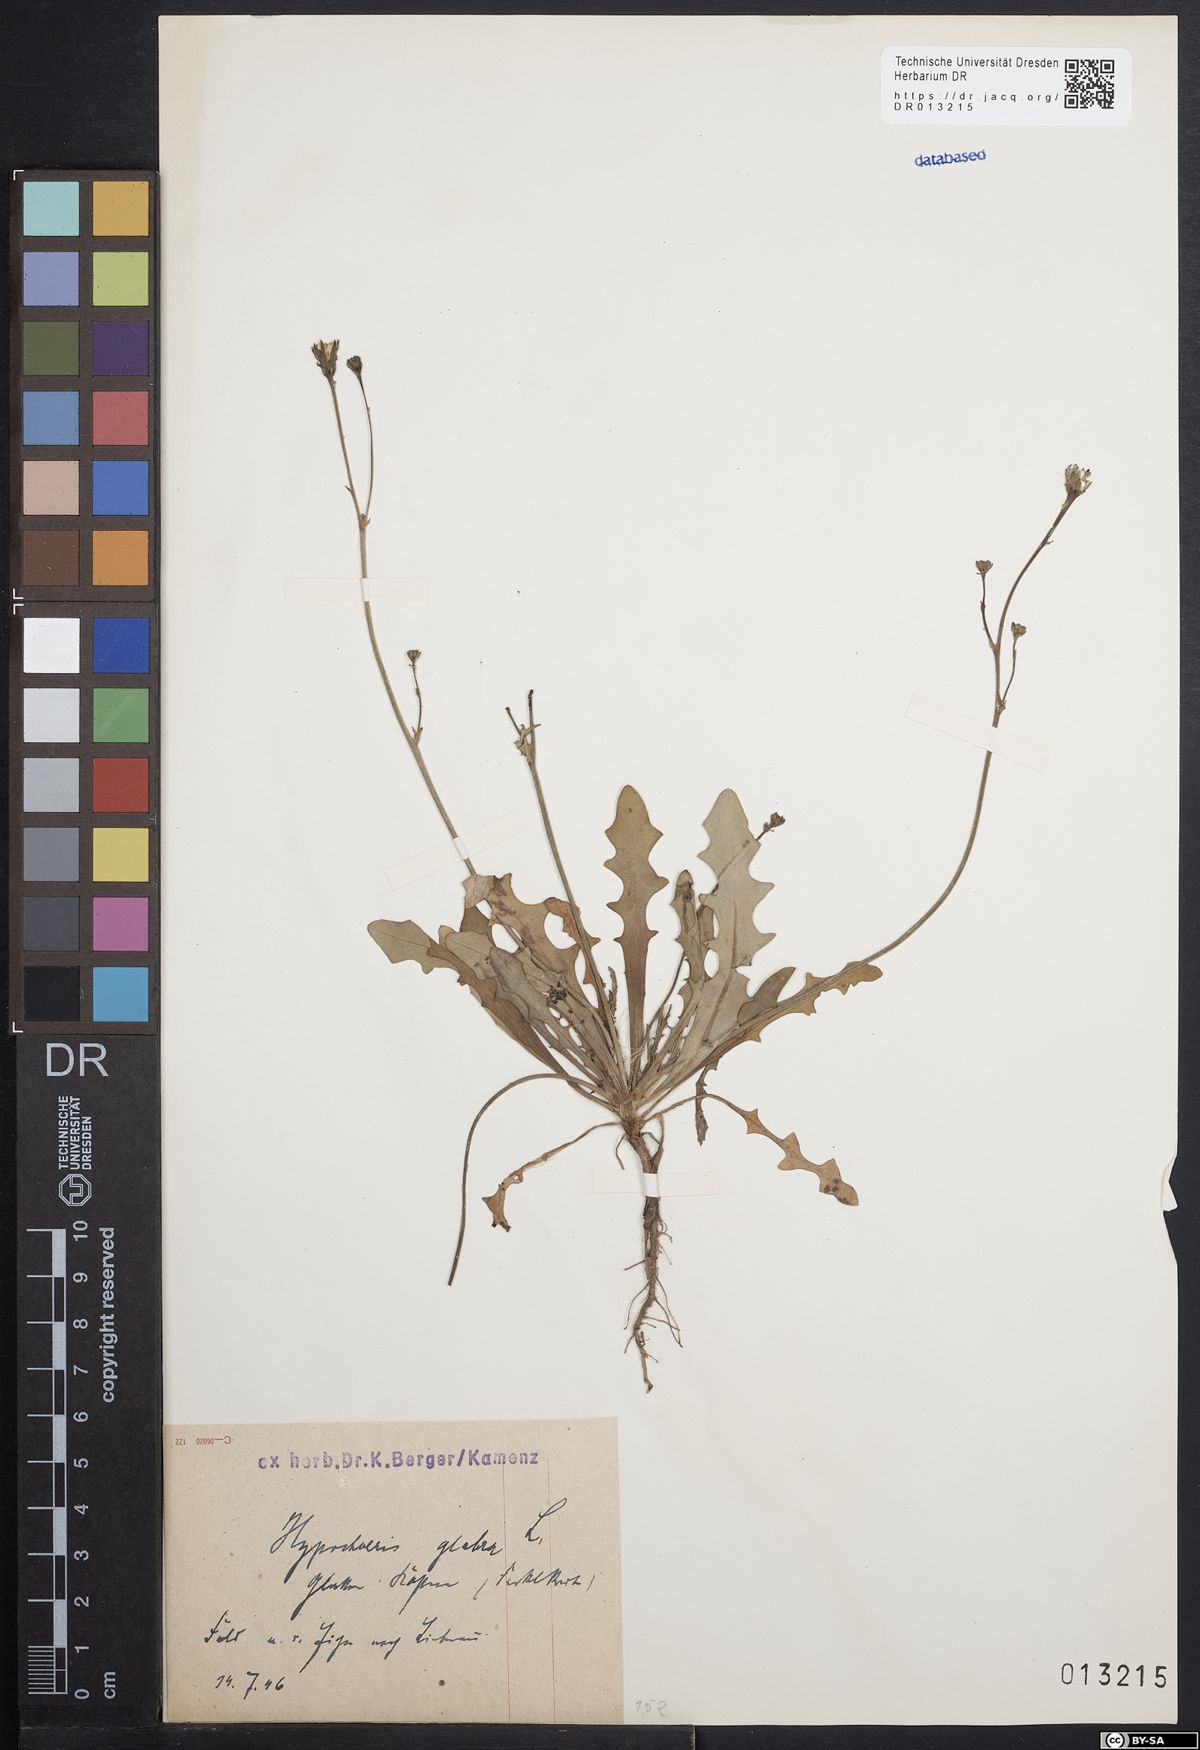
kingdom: Plantae
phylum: Tracheophyta
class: Magnoliopsida
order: Asterales
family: Asteraceae
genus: Hypochaeris
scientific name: Hypochaeris glabra
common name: Smooth catsear
